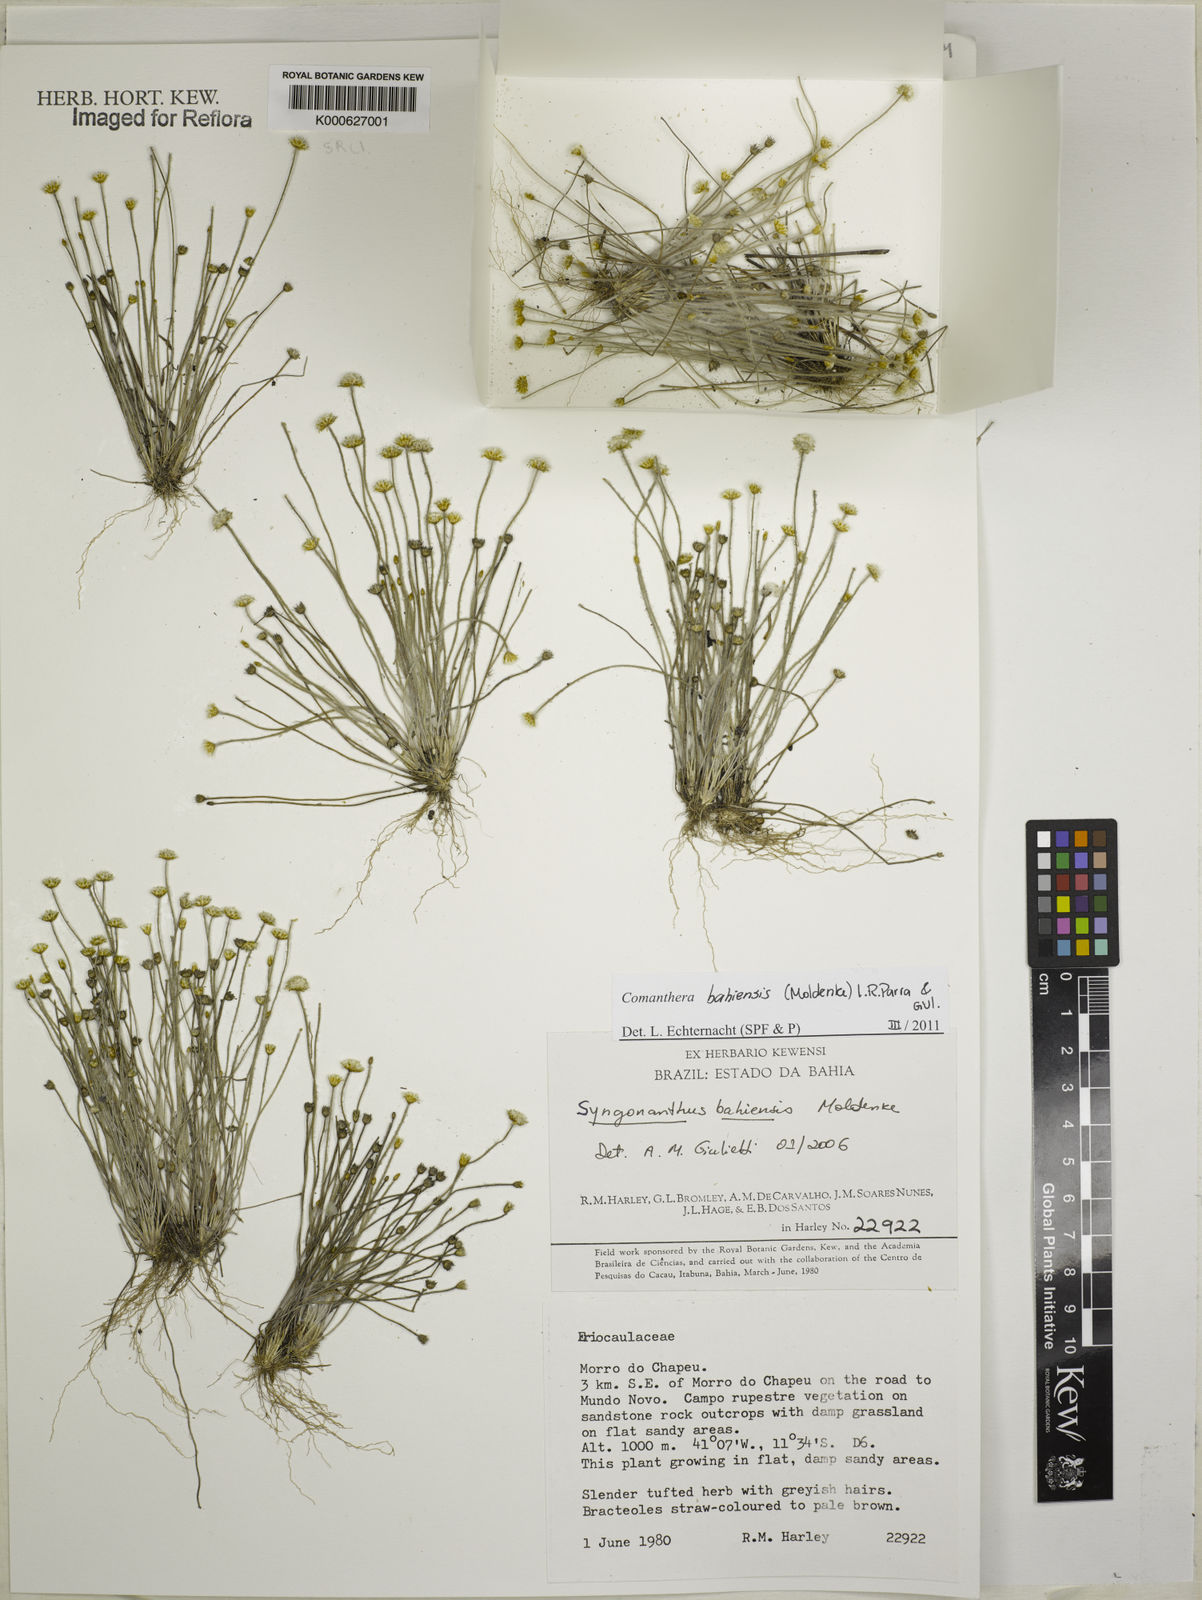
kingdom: Plantae
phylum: Tracheophyta
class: Liliopsida
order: Poales
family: Eriocaulaceae
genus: Comanthera
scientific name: Comanthera bahiensis
